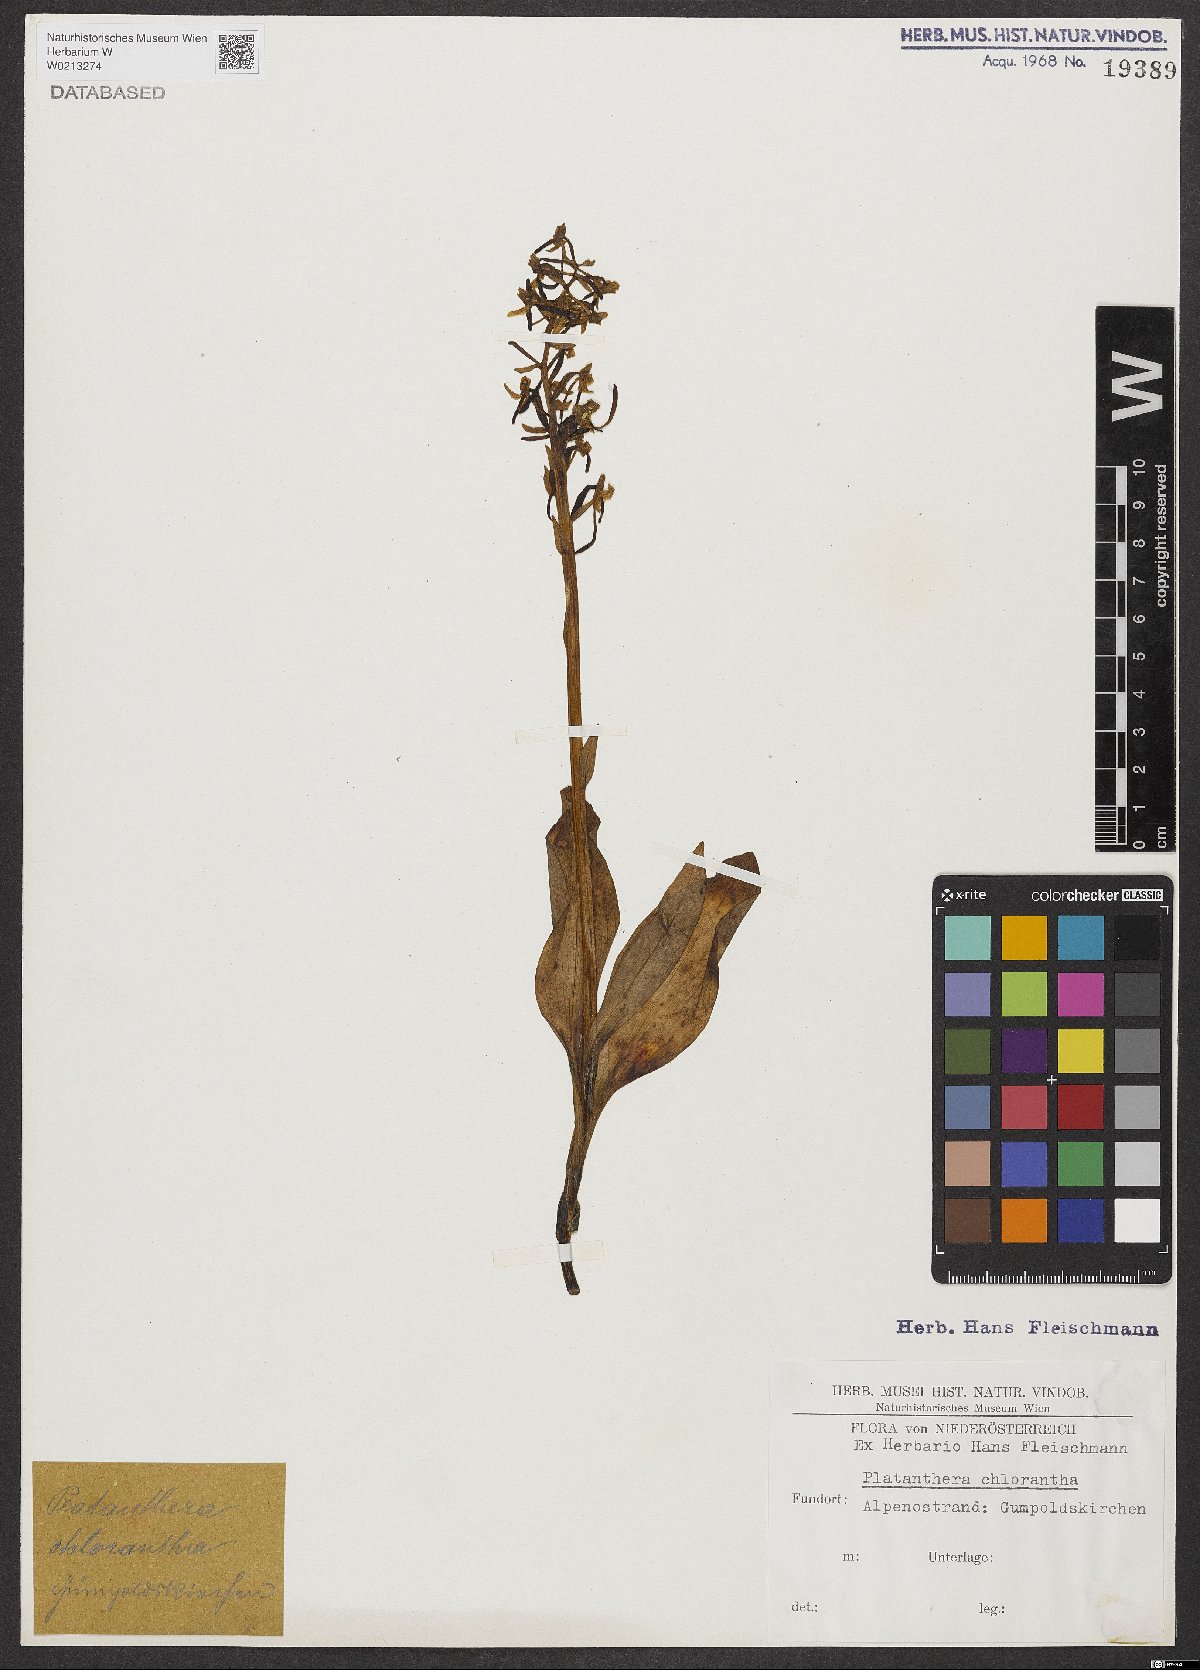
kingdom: Plantae
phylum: Tracheophyta
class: Liliopsida
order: Asparagales
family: Orchidaceae
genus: Platanthera
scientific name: Platanthera chlorantha
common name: Greater butterfly-orchid
